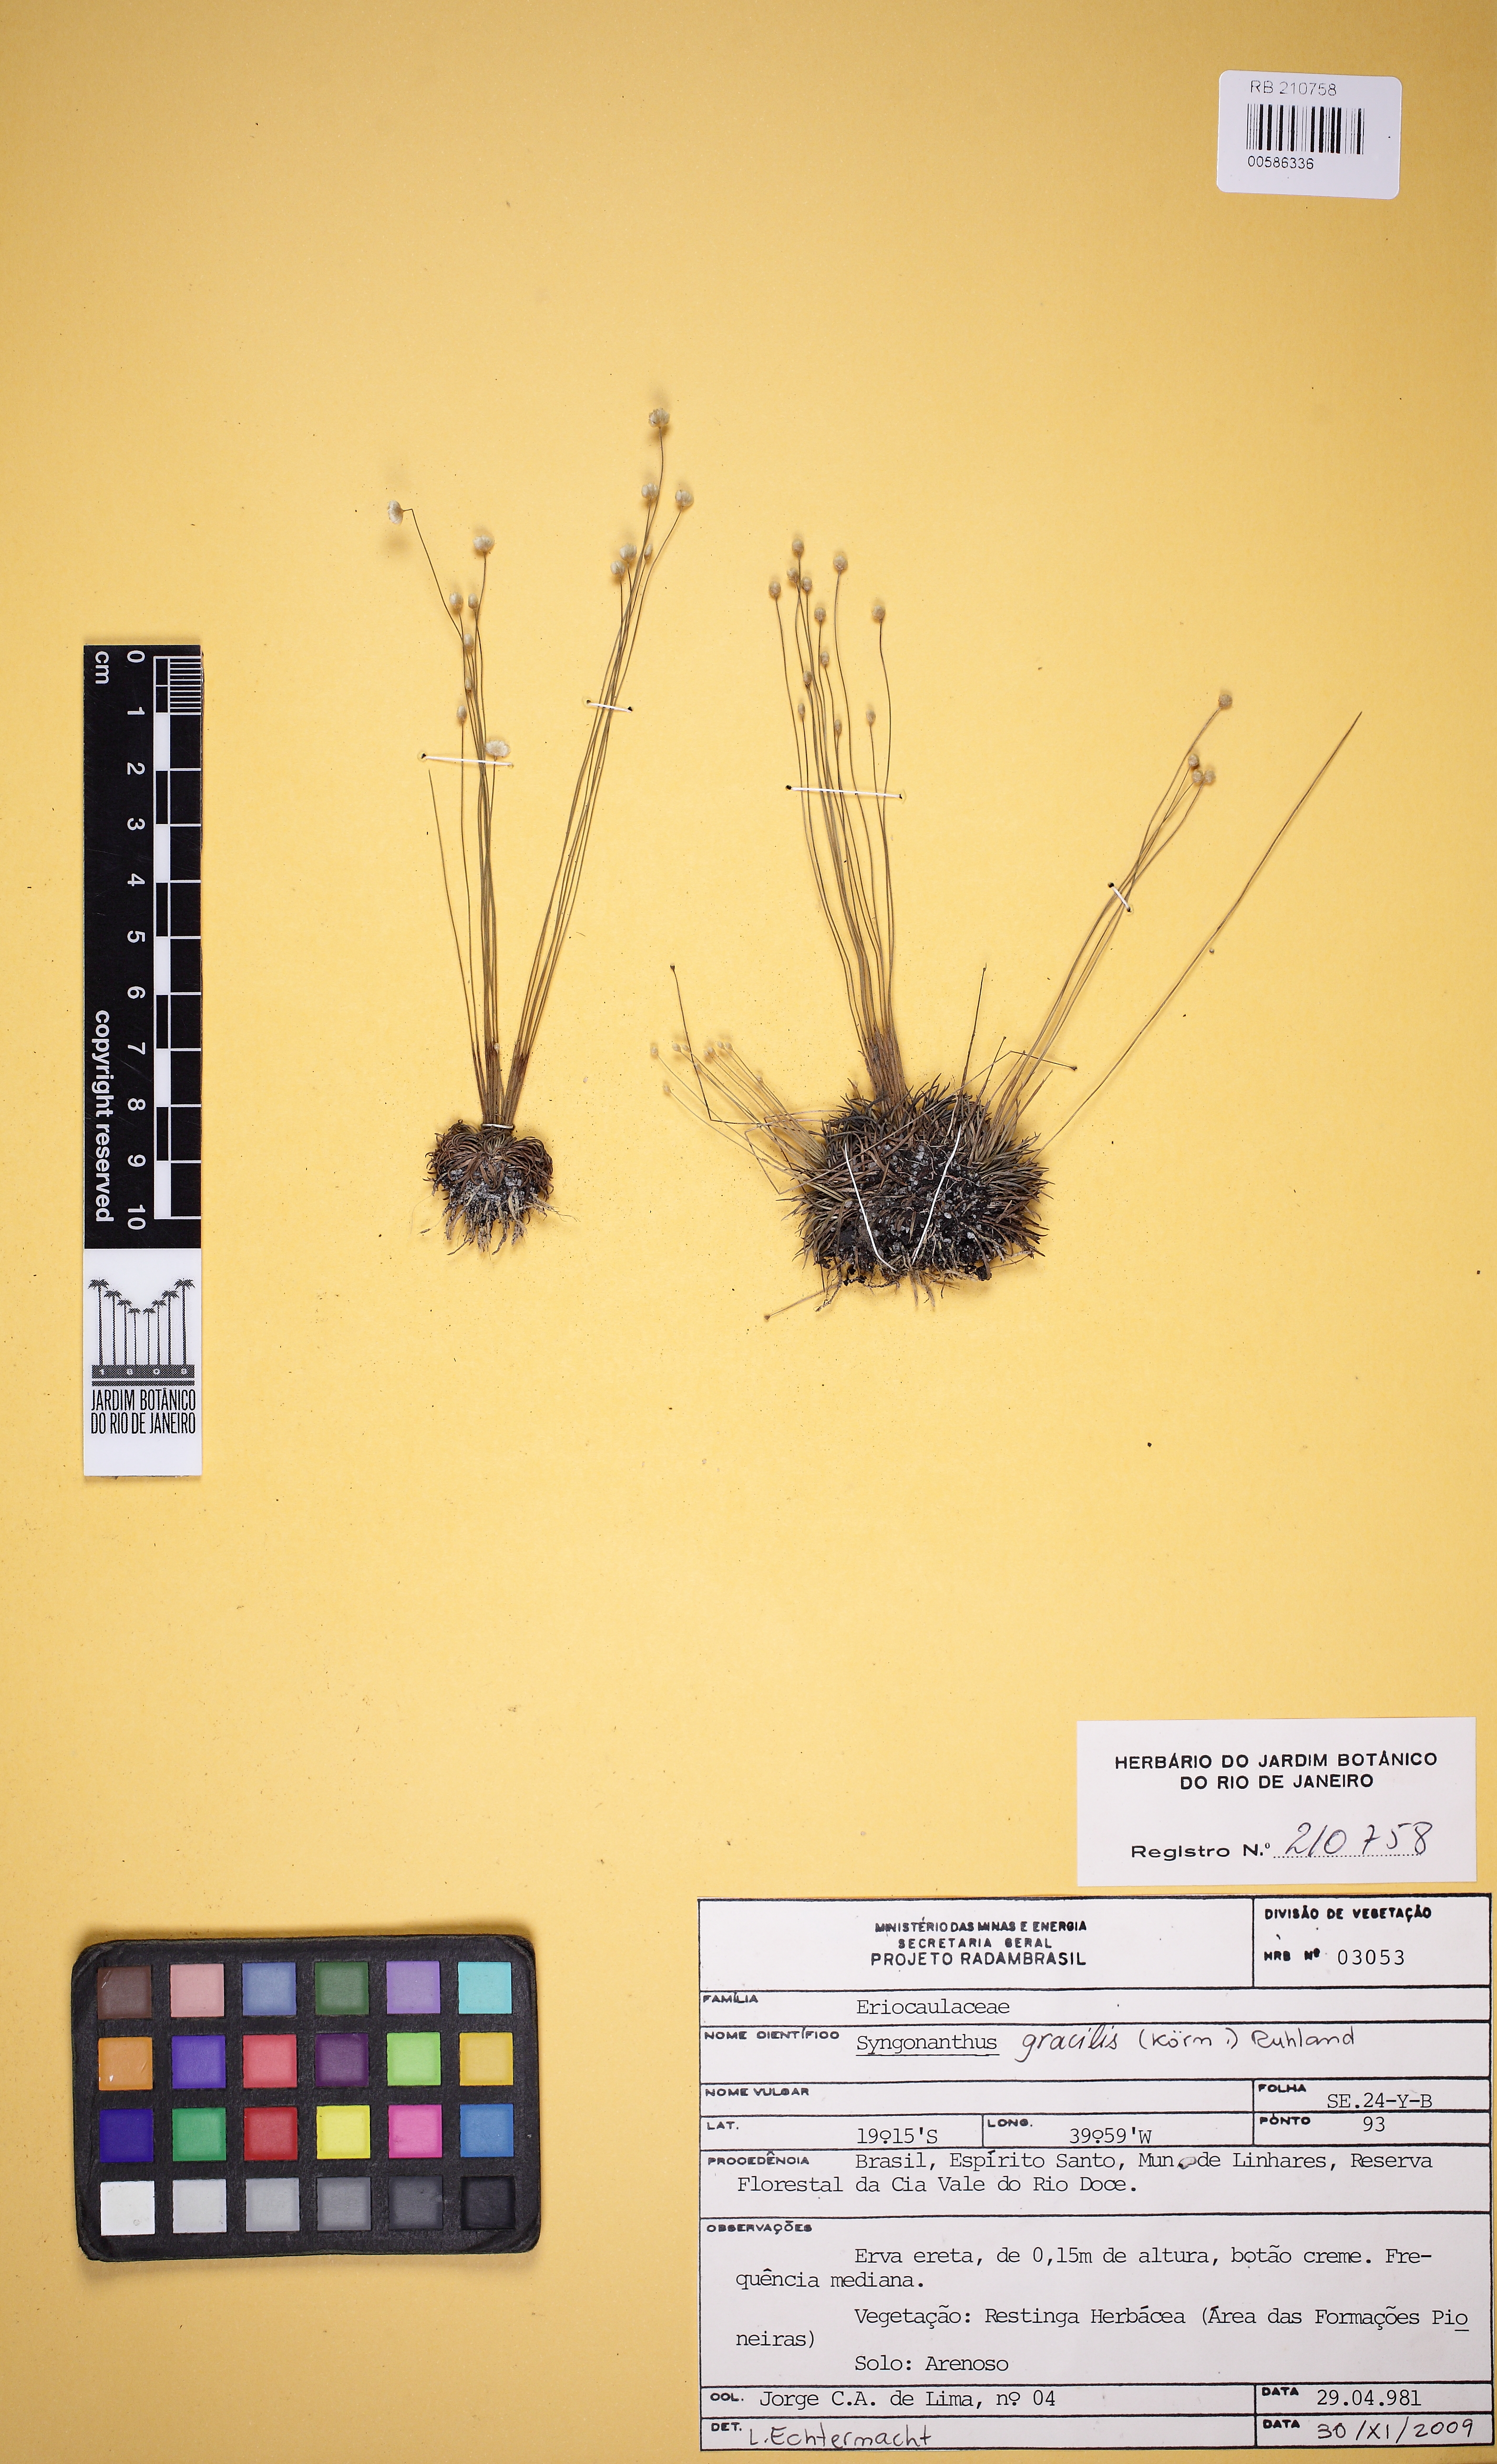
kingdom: Plantae
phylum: Tracheophyta
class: Liliopsida
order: Poales
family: Eriocaulaceae
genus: Syngonanthus
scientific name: Syngonanthus gracilis
